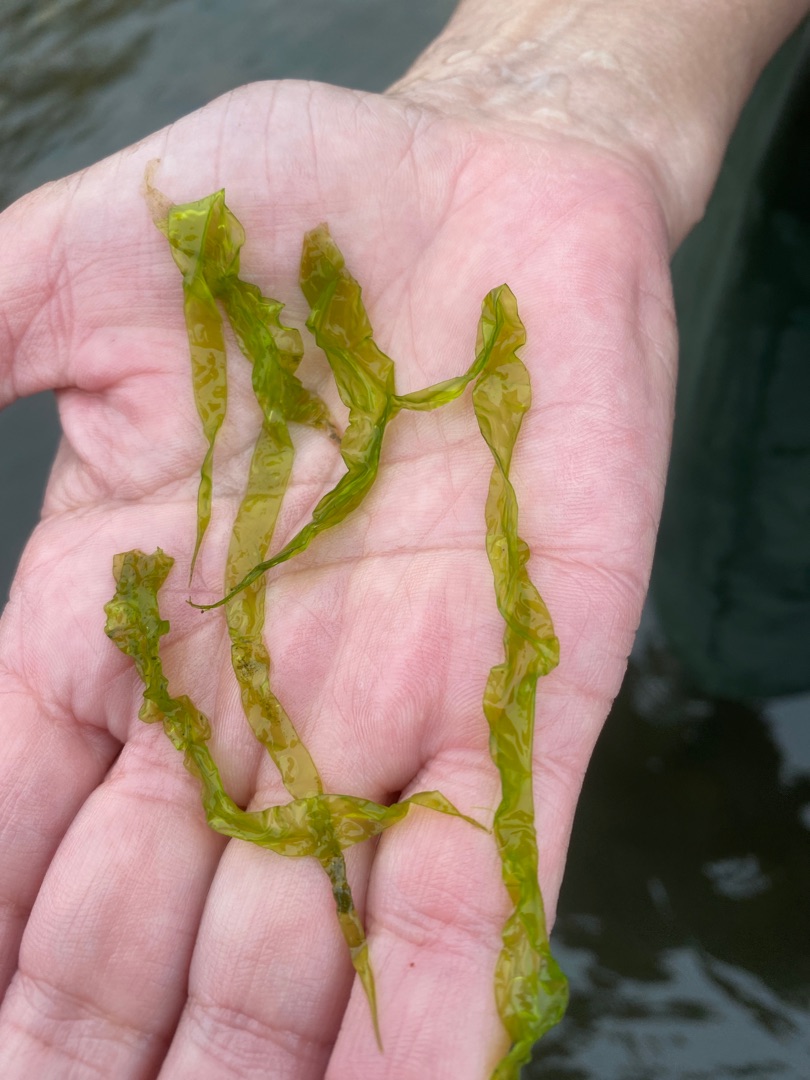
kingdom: Plantae
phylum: Chlorophyta
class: Ulvophyceae
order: Ulvales
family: Ulvaceae
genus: Ulva
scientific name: Ulva
